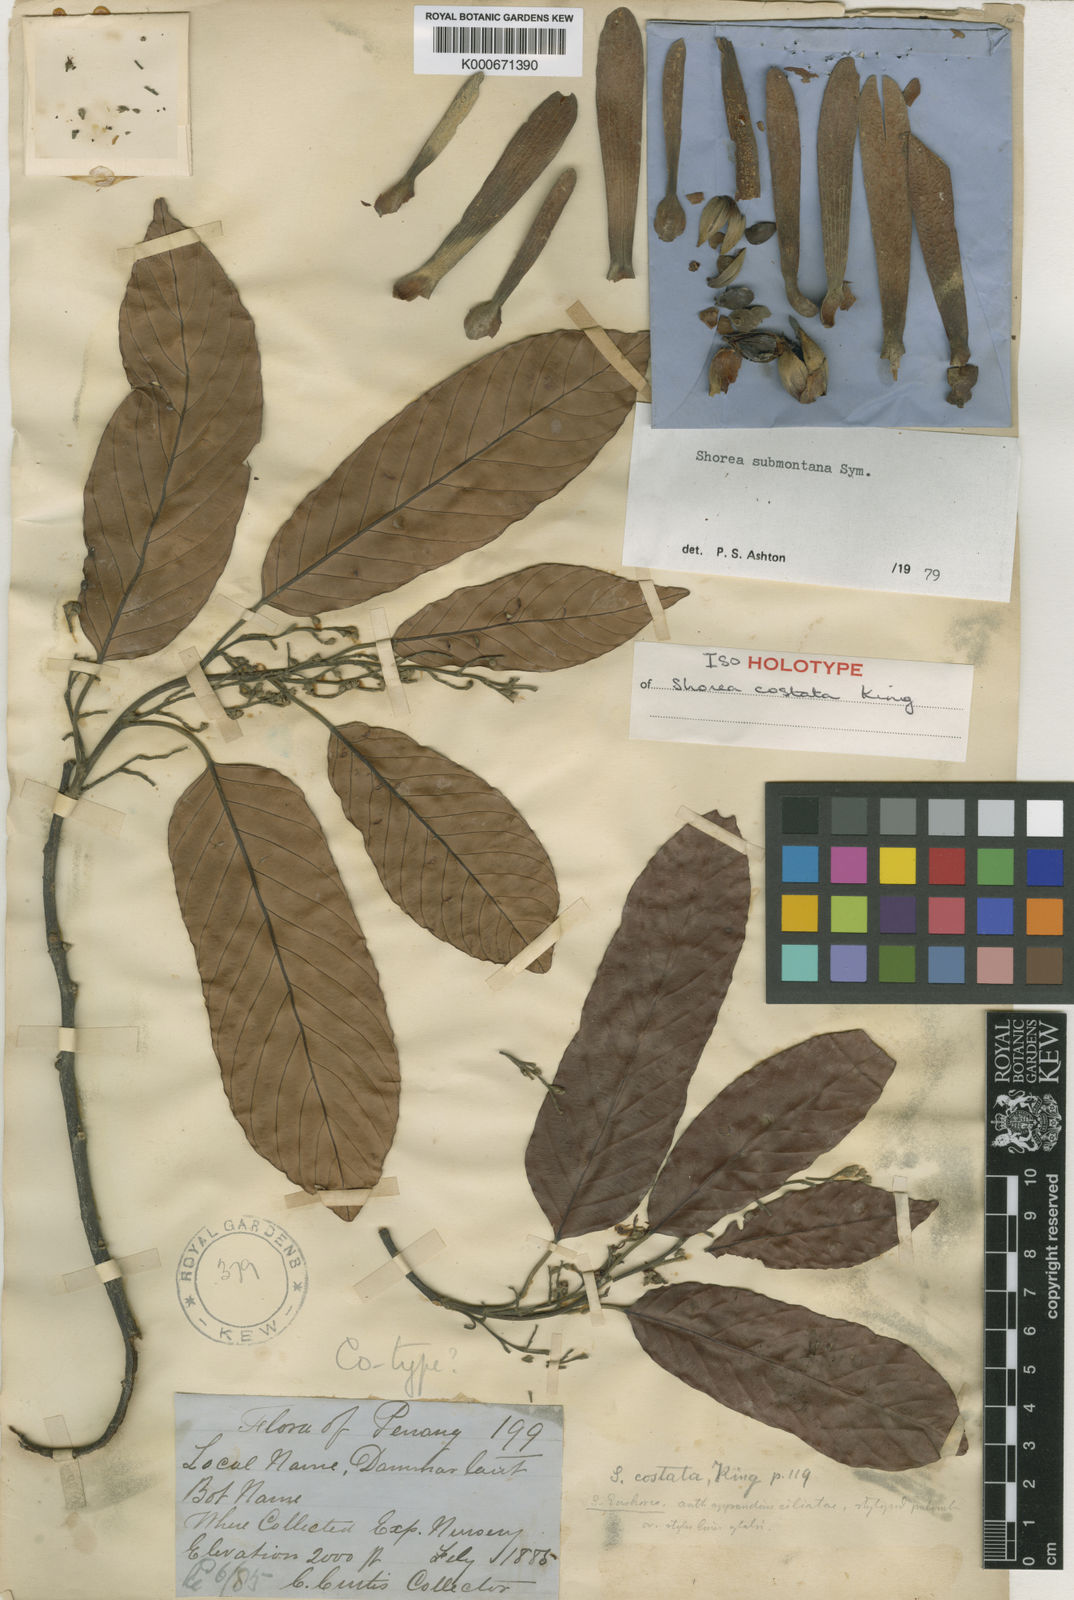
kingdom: Plantae
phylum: Tracheophyta
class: Magnoliopsida
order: Malvales
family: Dipterocarpaceae
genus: Shorea
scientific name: Shorea submontana
